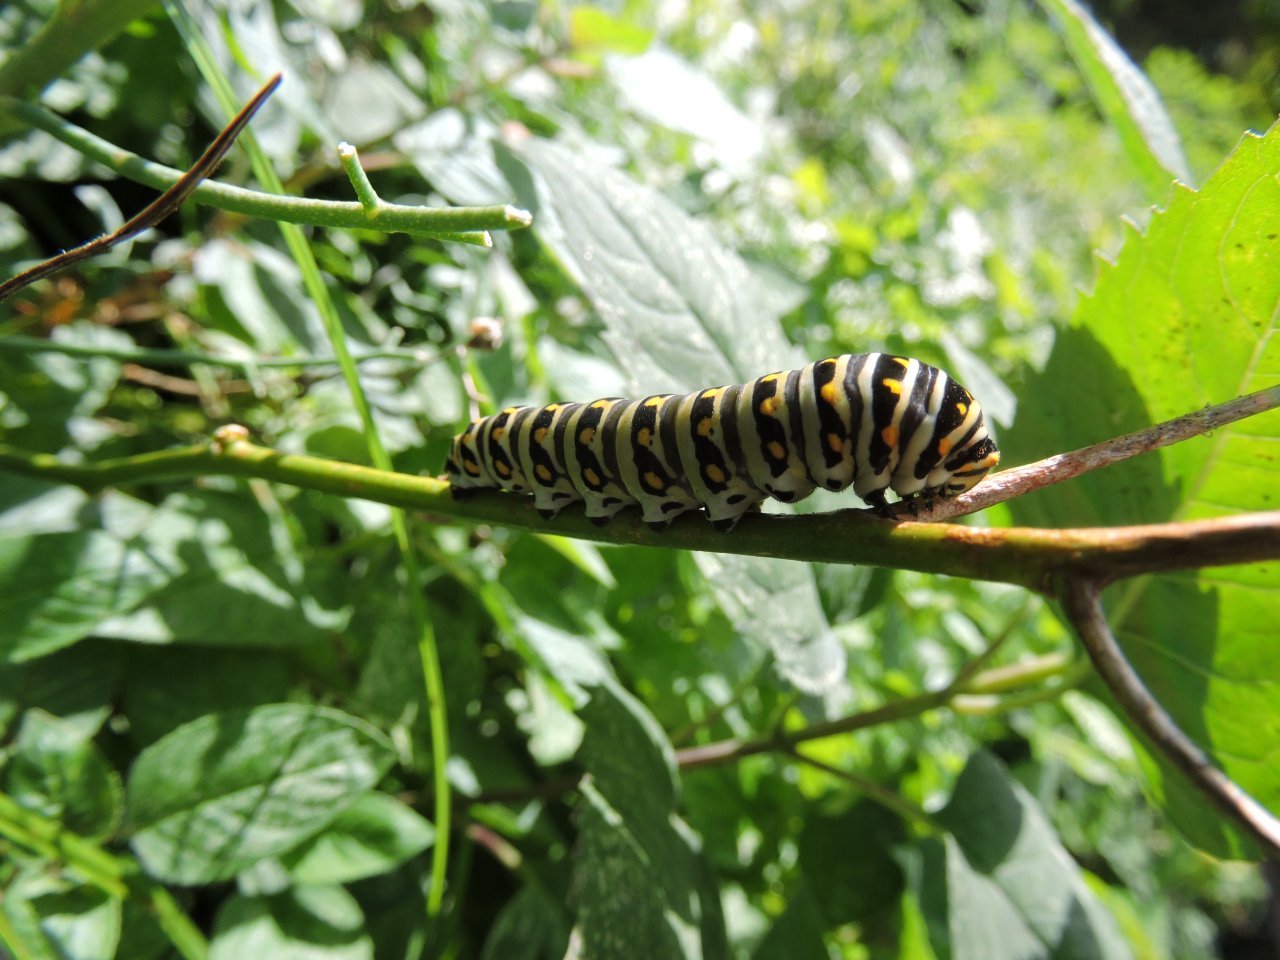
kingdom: Animalia
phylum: Arthropoda
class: Insecta
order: Lepidoptera
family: Papilionidae
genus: Papilio
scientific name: Papilio polyxenes
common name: Black Swallowtail
